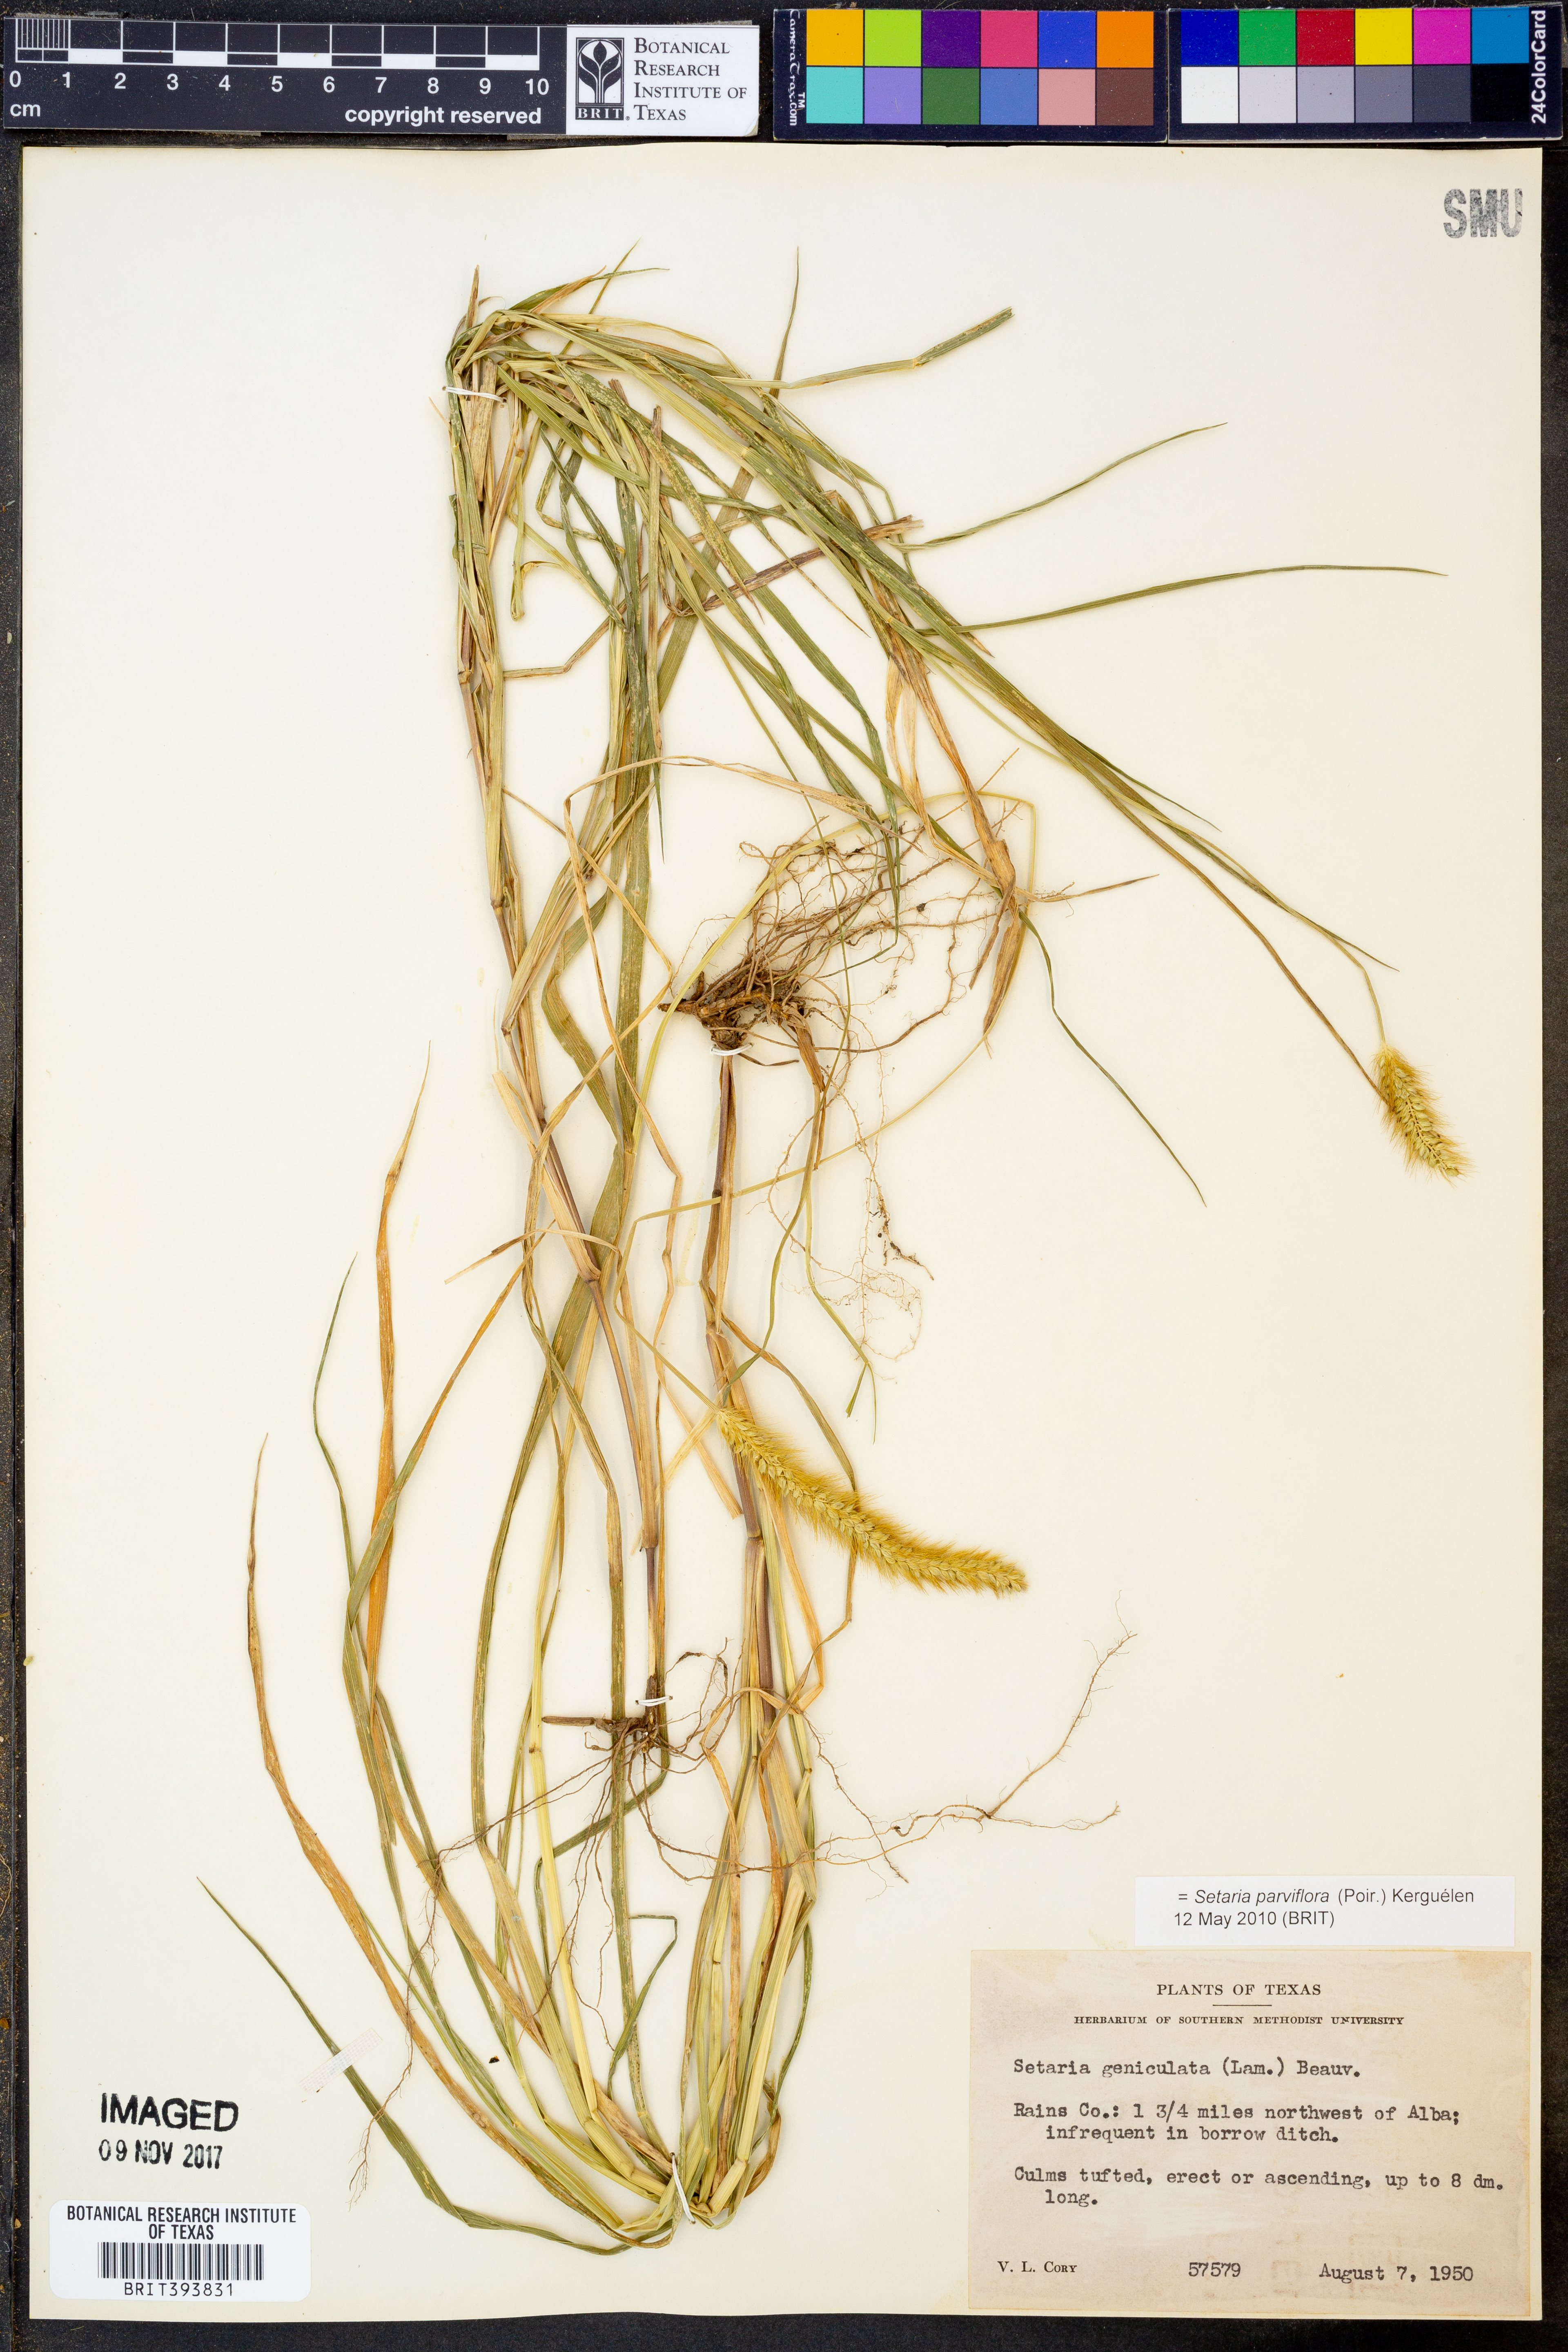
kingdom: Plantae
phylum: Tracheophyta
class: Liliopsida
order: Poales
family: Poaceae
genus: Setaria
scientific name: Setaria parviflora
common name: Knotroot bristle-grass
